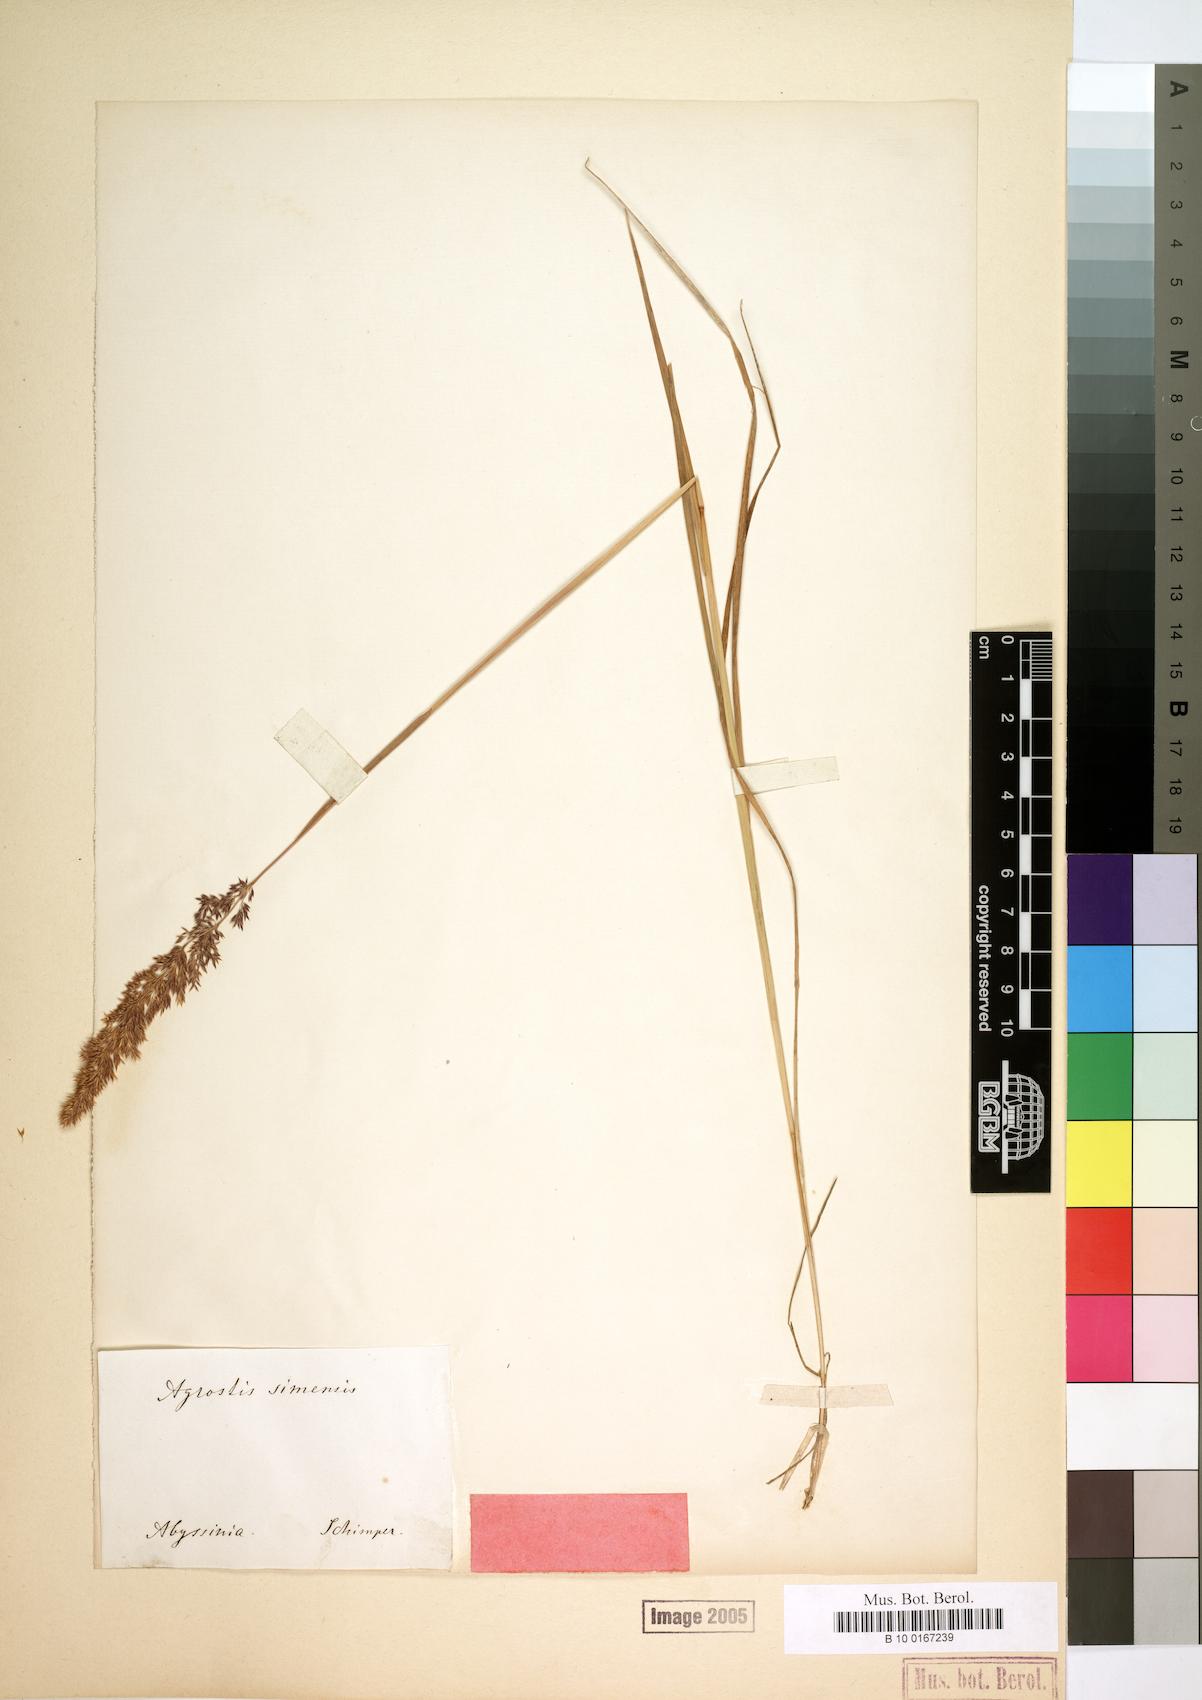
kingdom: Plantae
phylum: Tracheophyta
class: Liliopsida
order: Poales
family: Poaceae
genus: Polypogon
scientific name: Polypogon schimperianus
